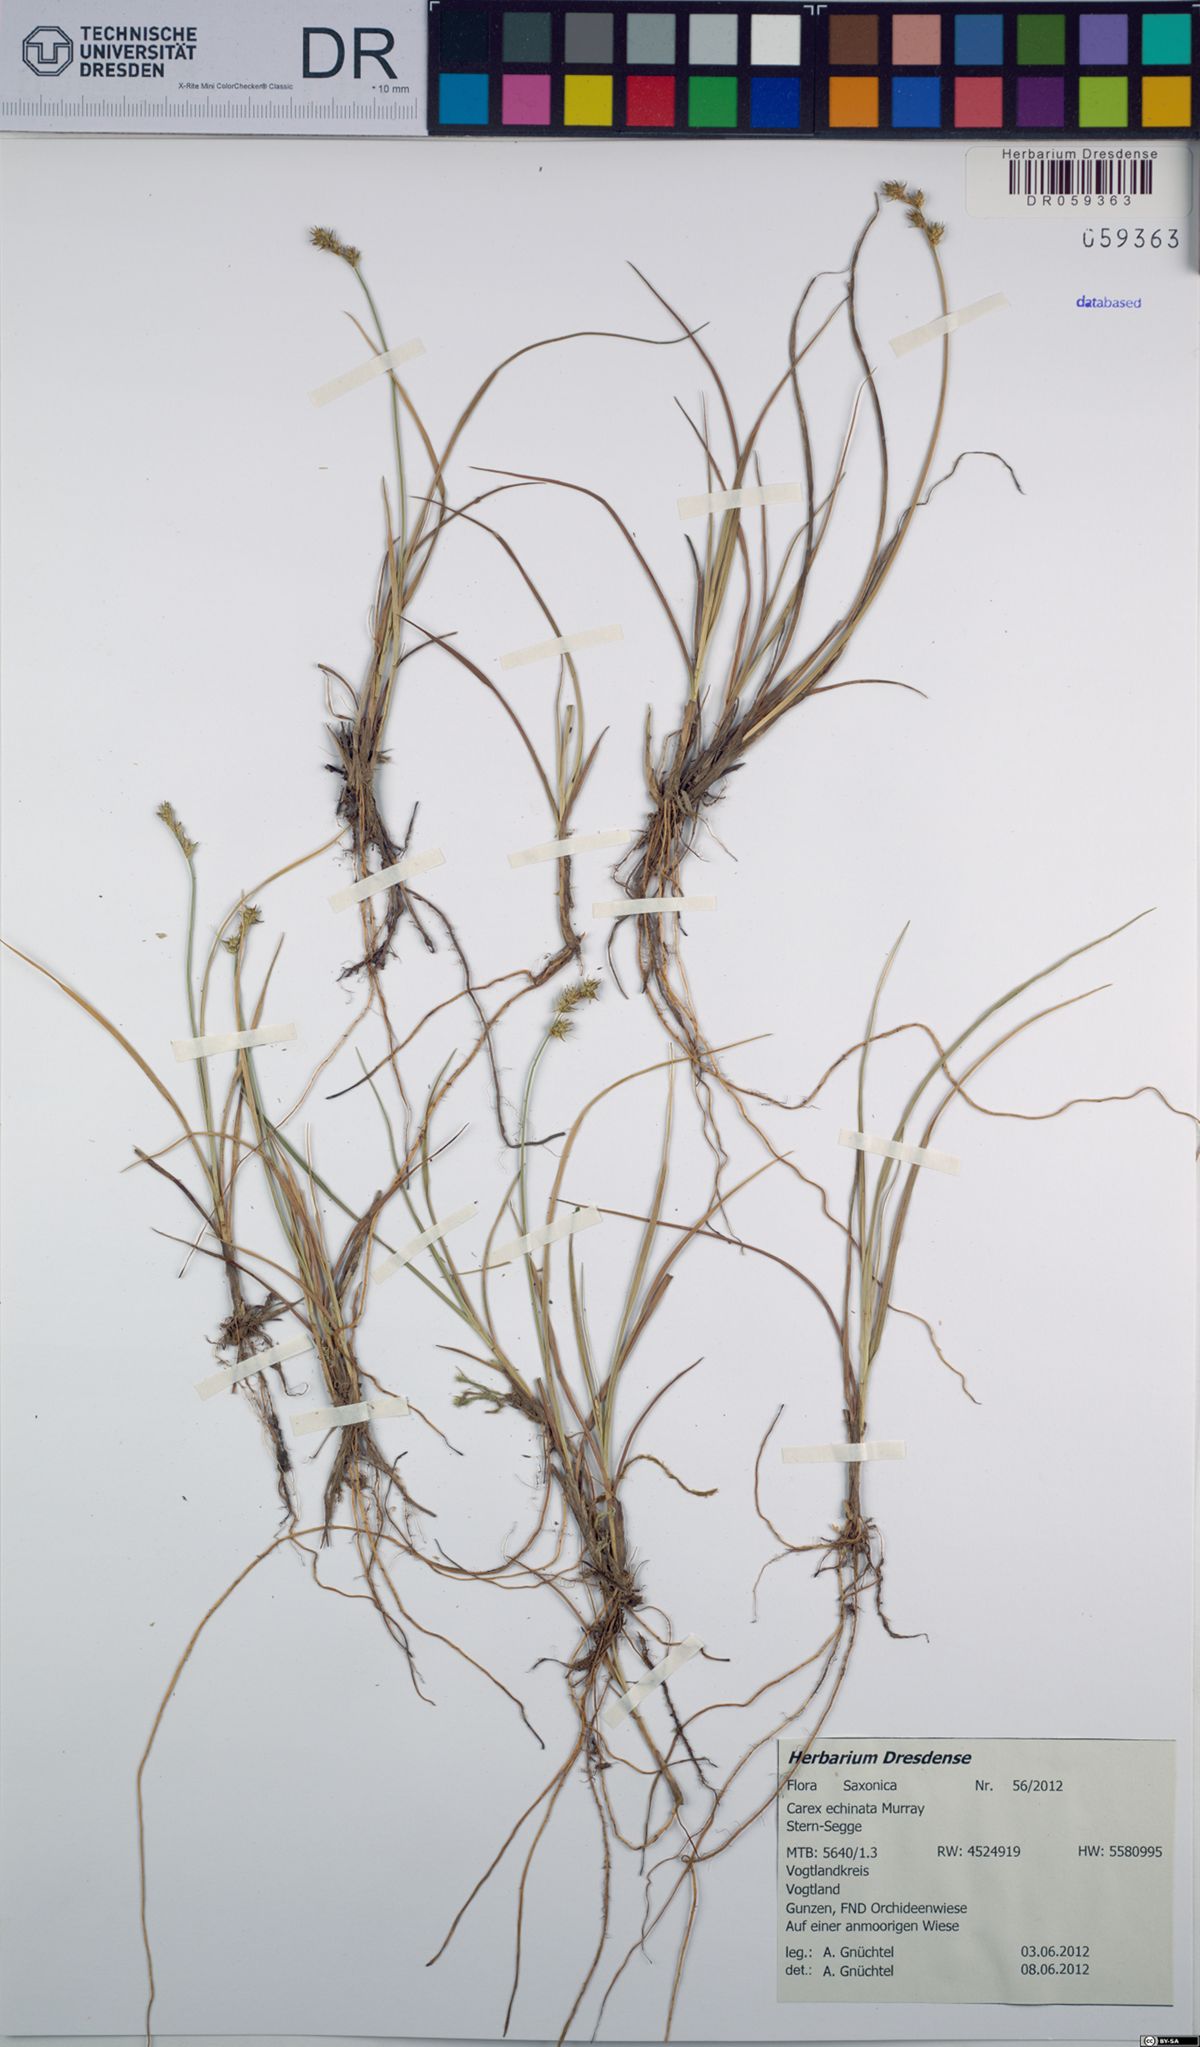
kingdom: Plantae
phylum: Tracheophyta
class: Liliopsida
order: Poales
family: Cyperaceae
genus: Carex
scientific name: Carex echinata
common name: Star sedge
